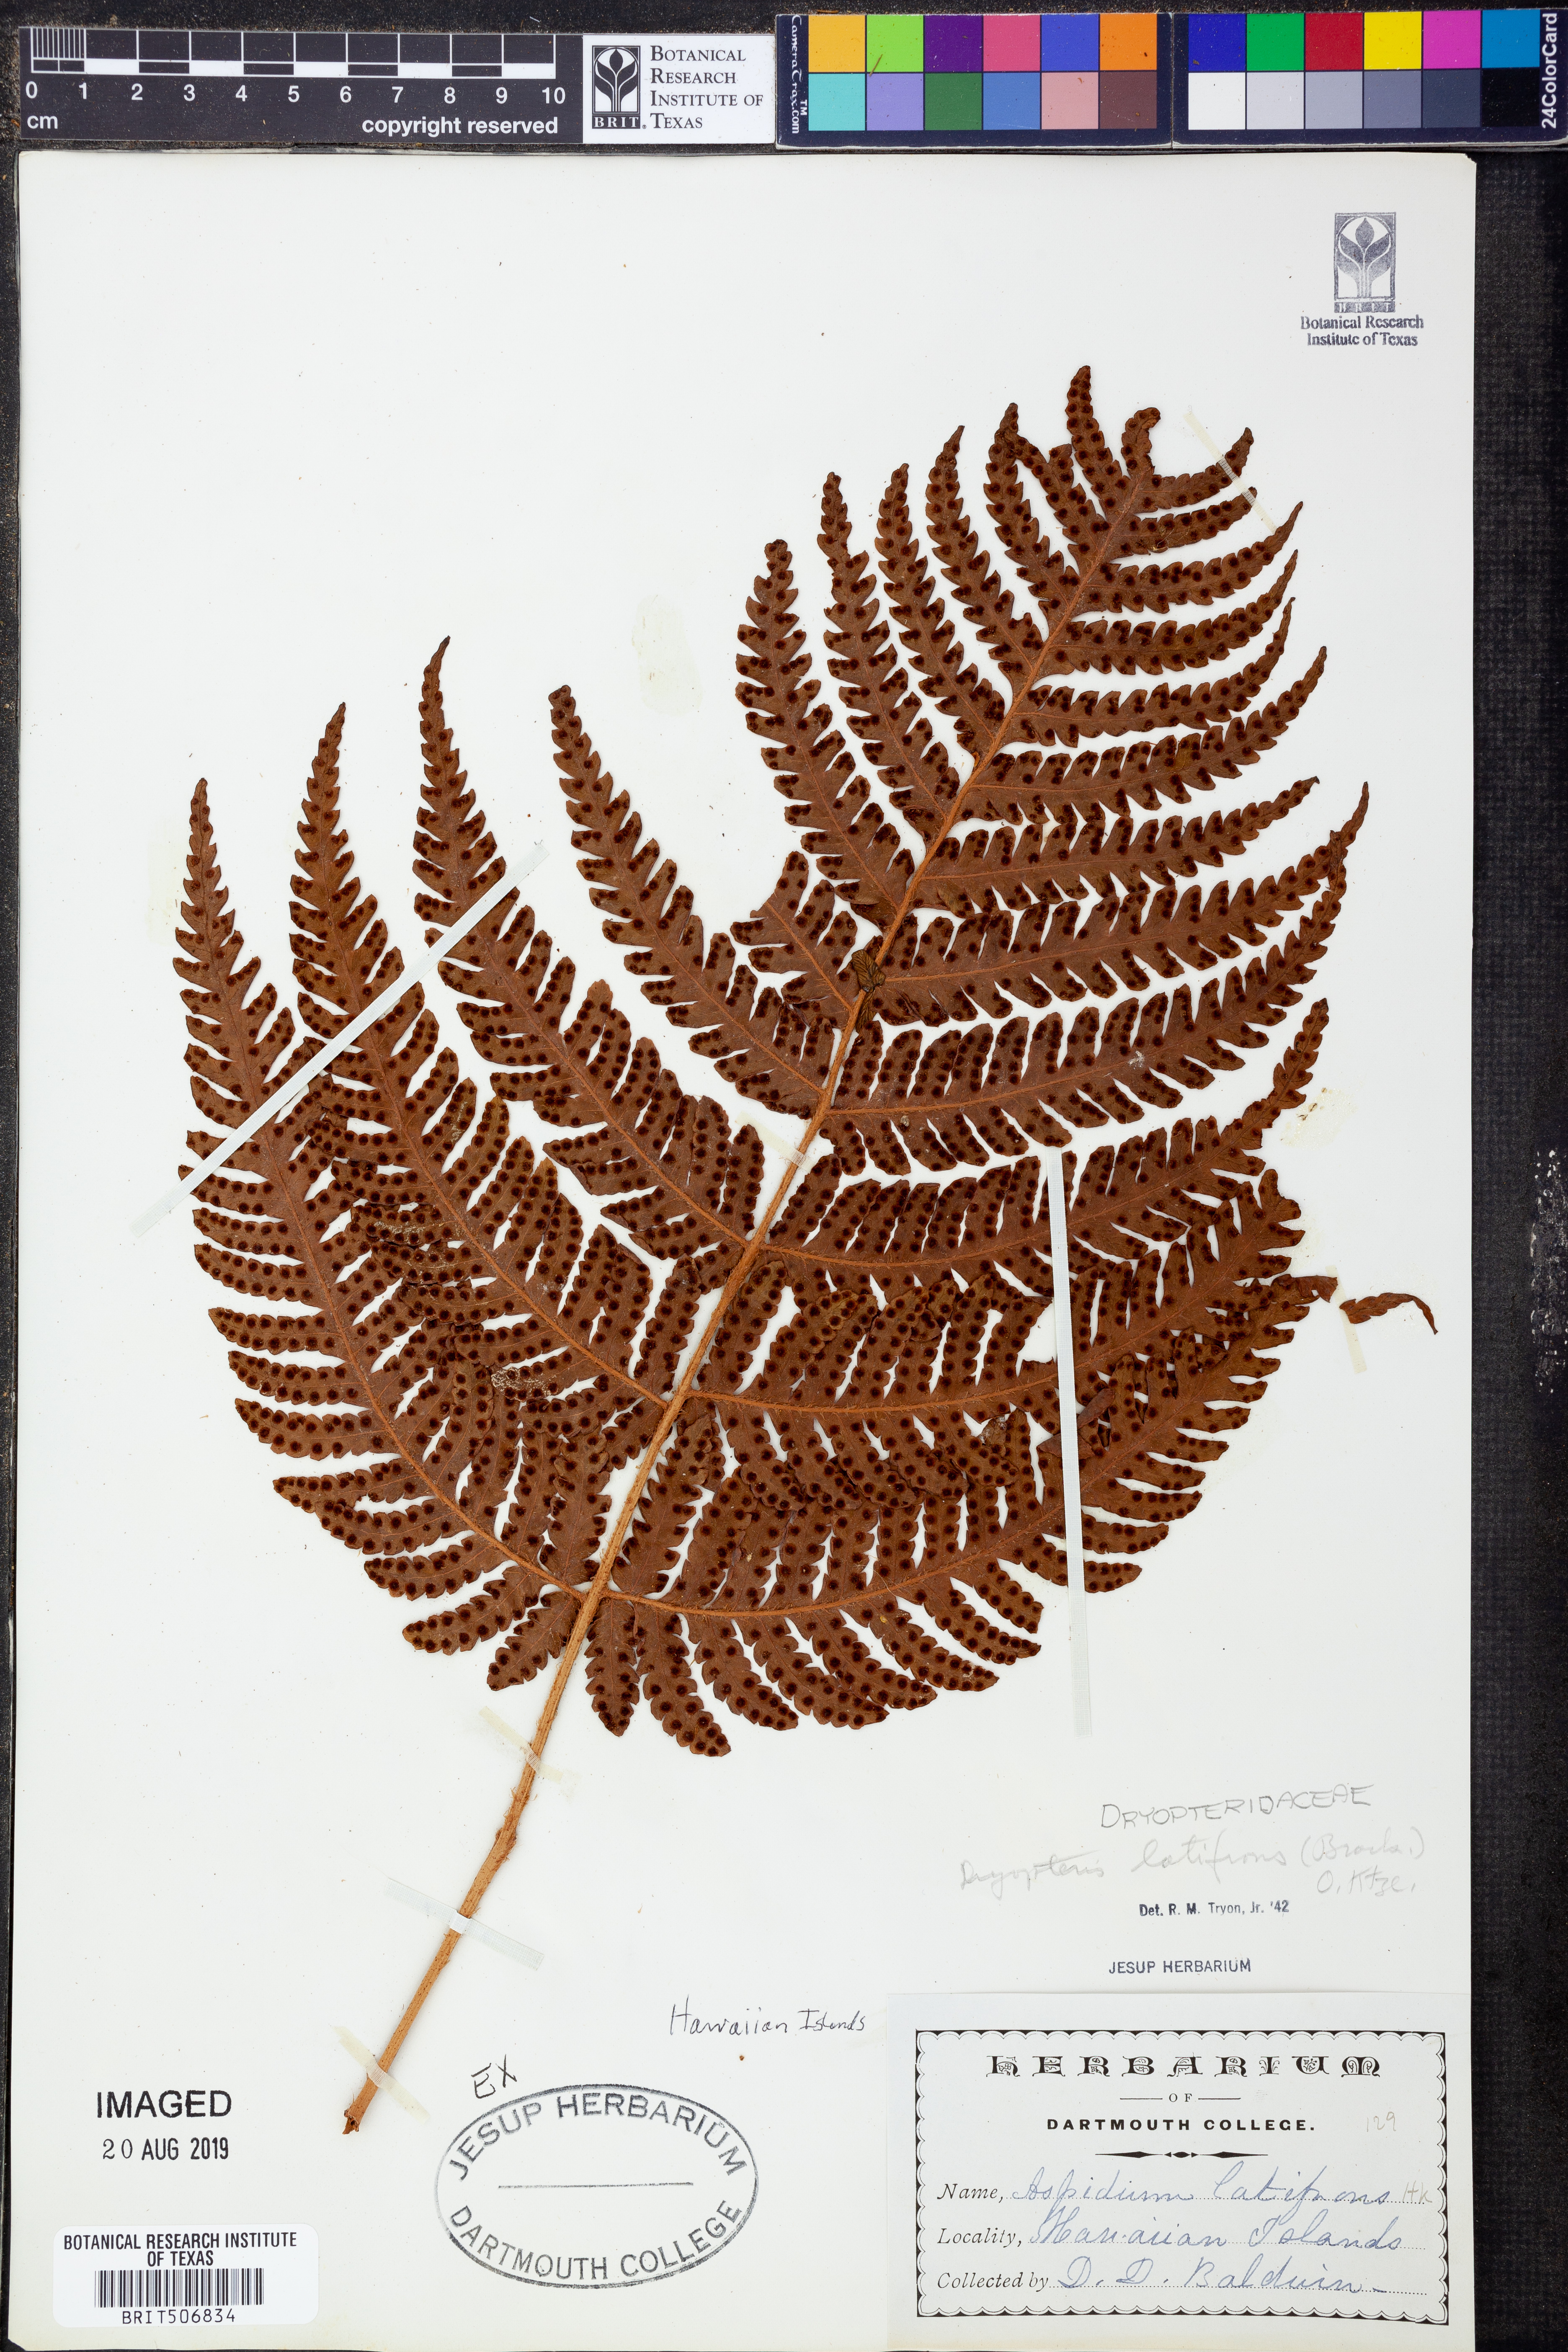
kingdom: Plantae
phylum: Tracheophyta
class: Polypodiopsida
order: Polypodiales
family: Dryopteridaceae
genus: Ctenitis
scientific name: Ctenitis latifrons
